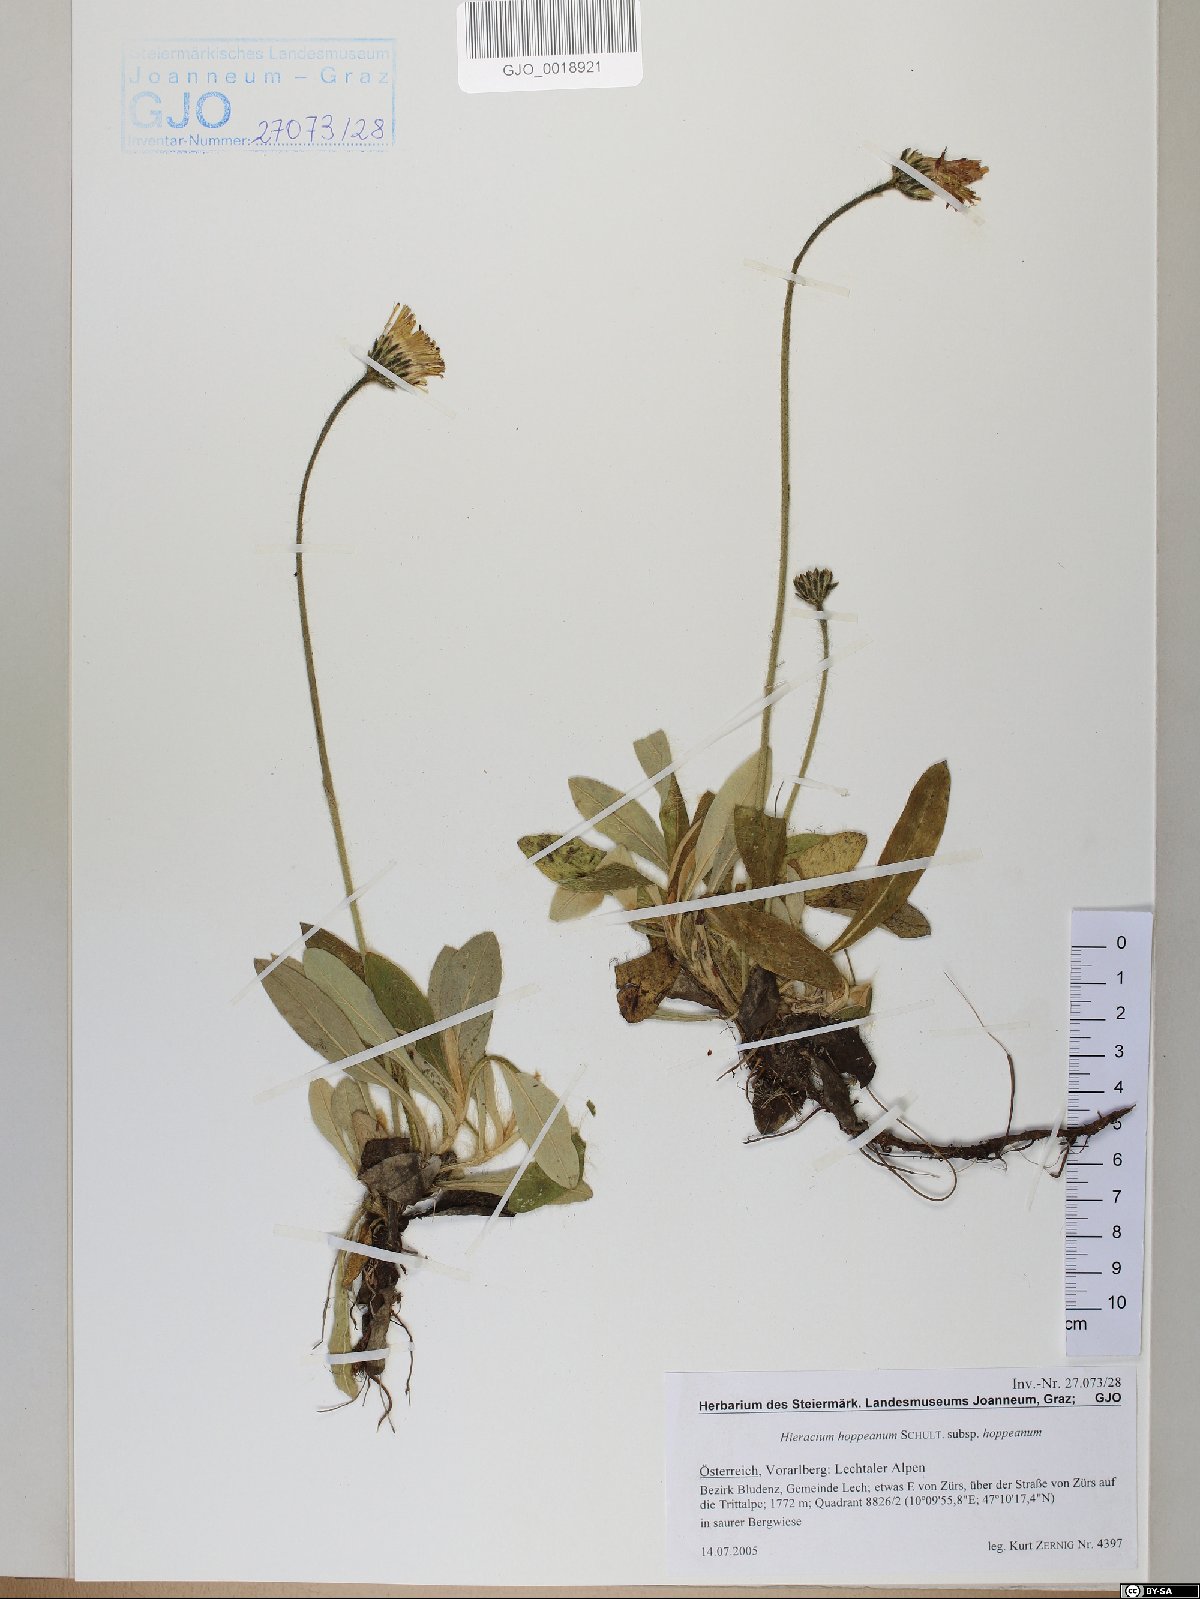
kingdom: Plantae
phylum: Tracheophyta
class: Magnoliopsida
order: Asterales
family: Asteraceae
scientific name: Asteraceae
